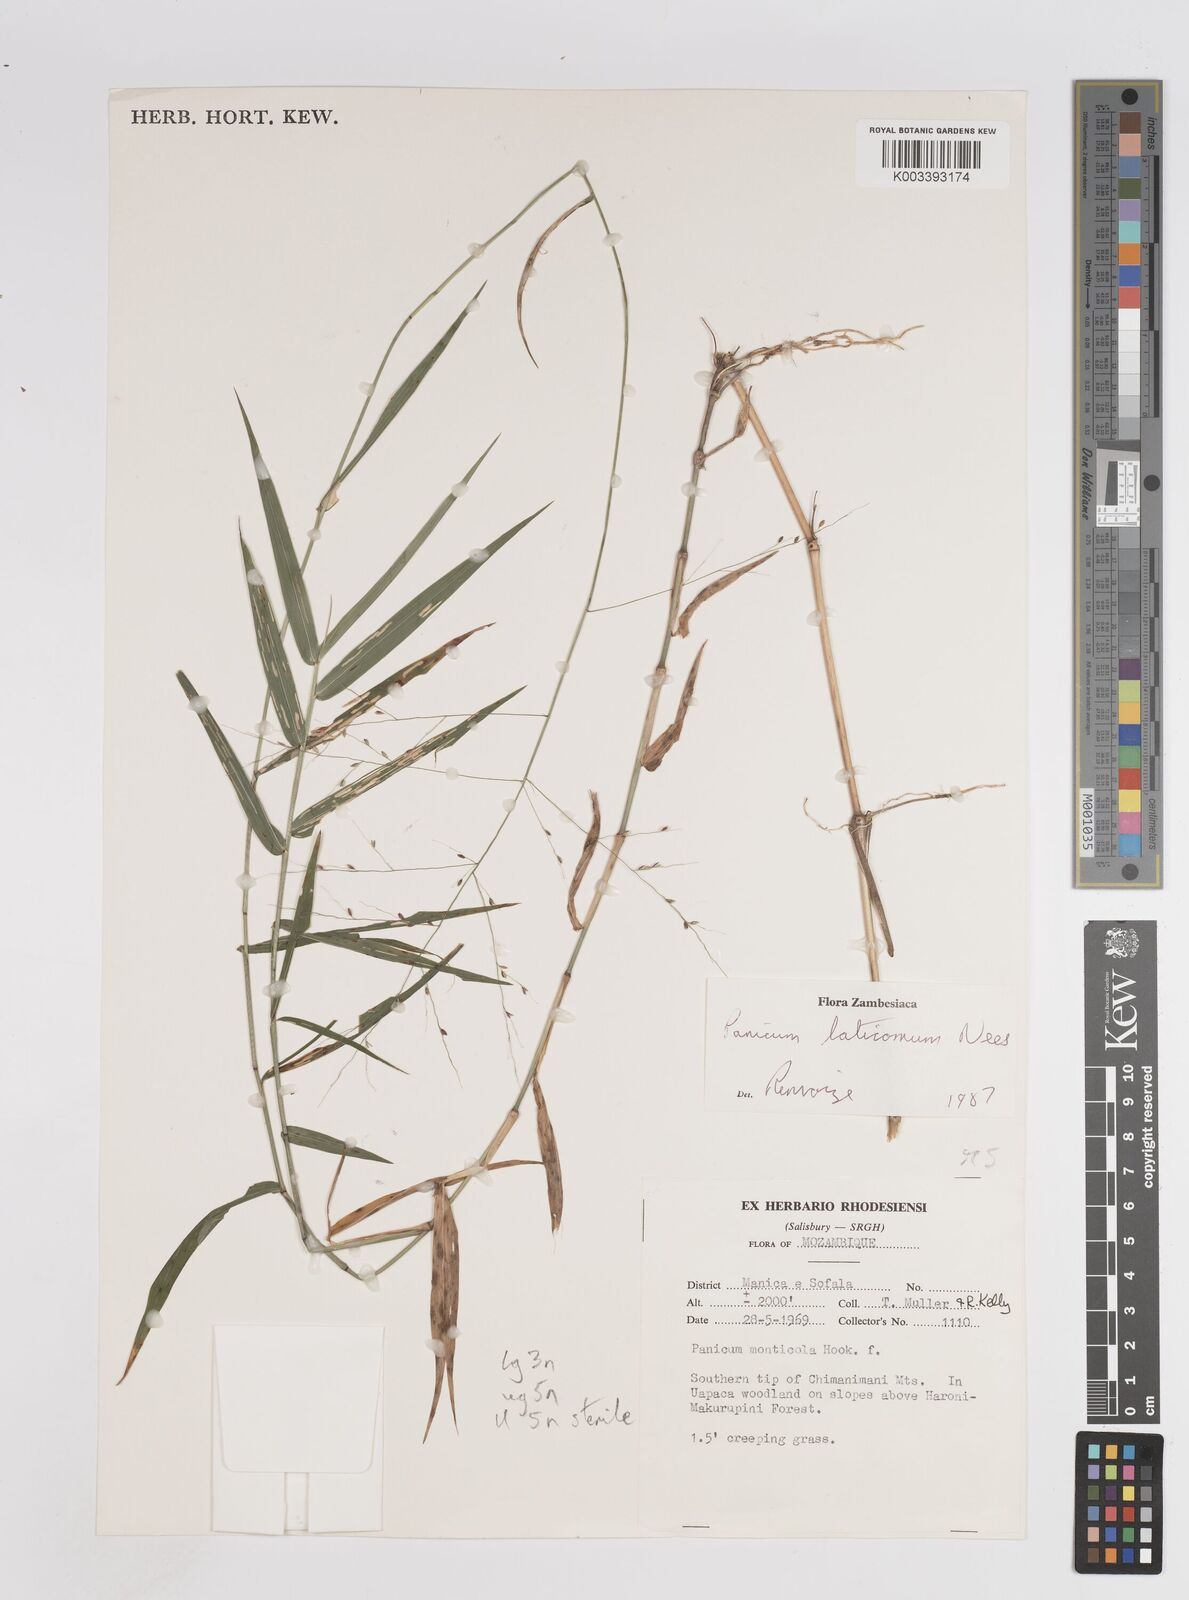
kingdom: Plantae
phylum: Tracheophyta
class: Liliopsida
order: Poales
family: Poaceae
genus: Panicum
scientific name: Panicum laticomum
